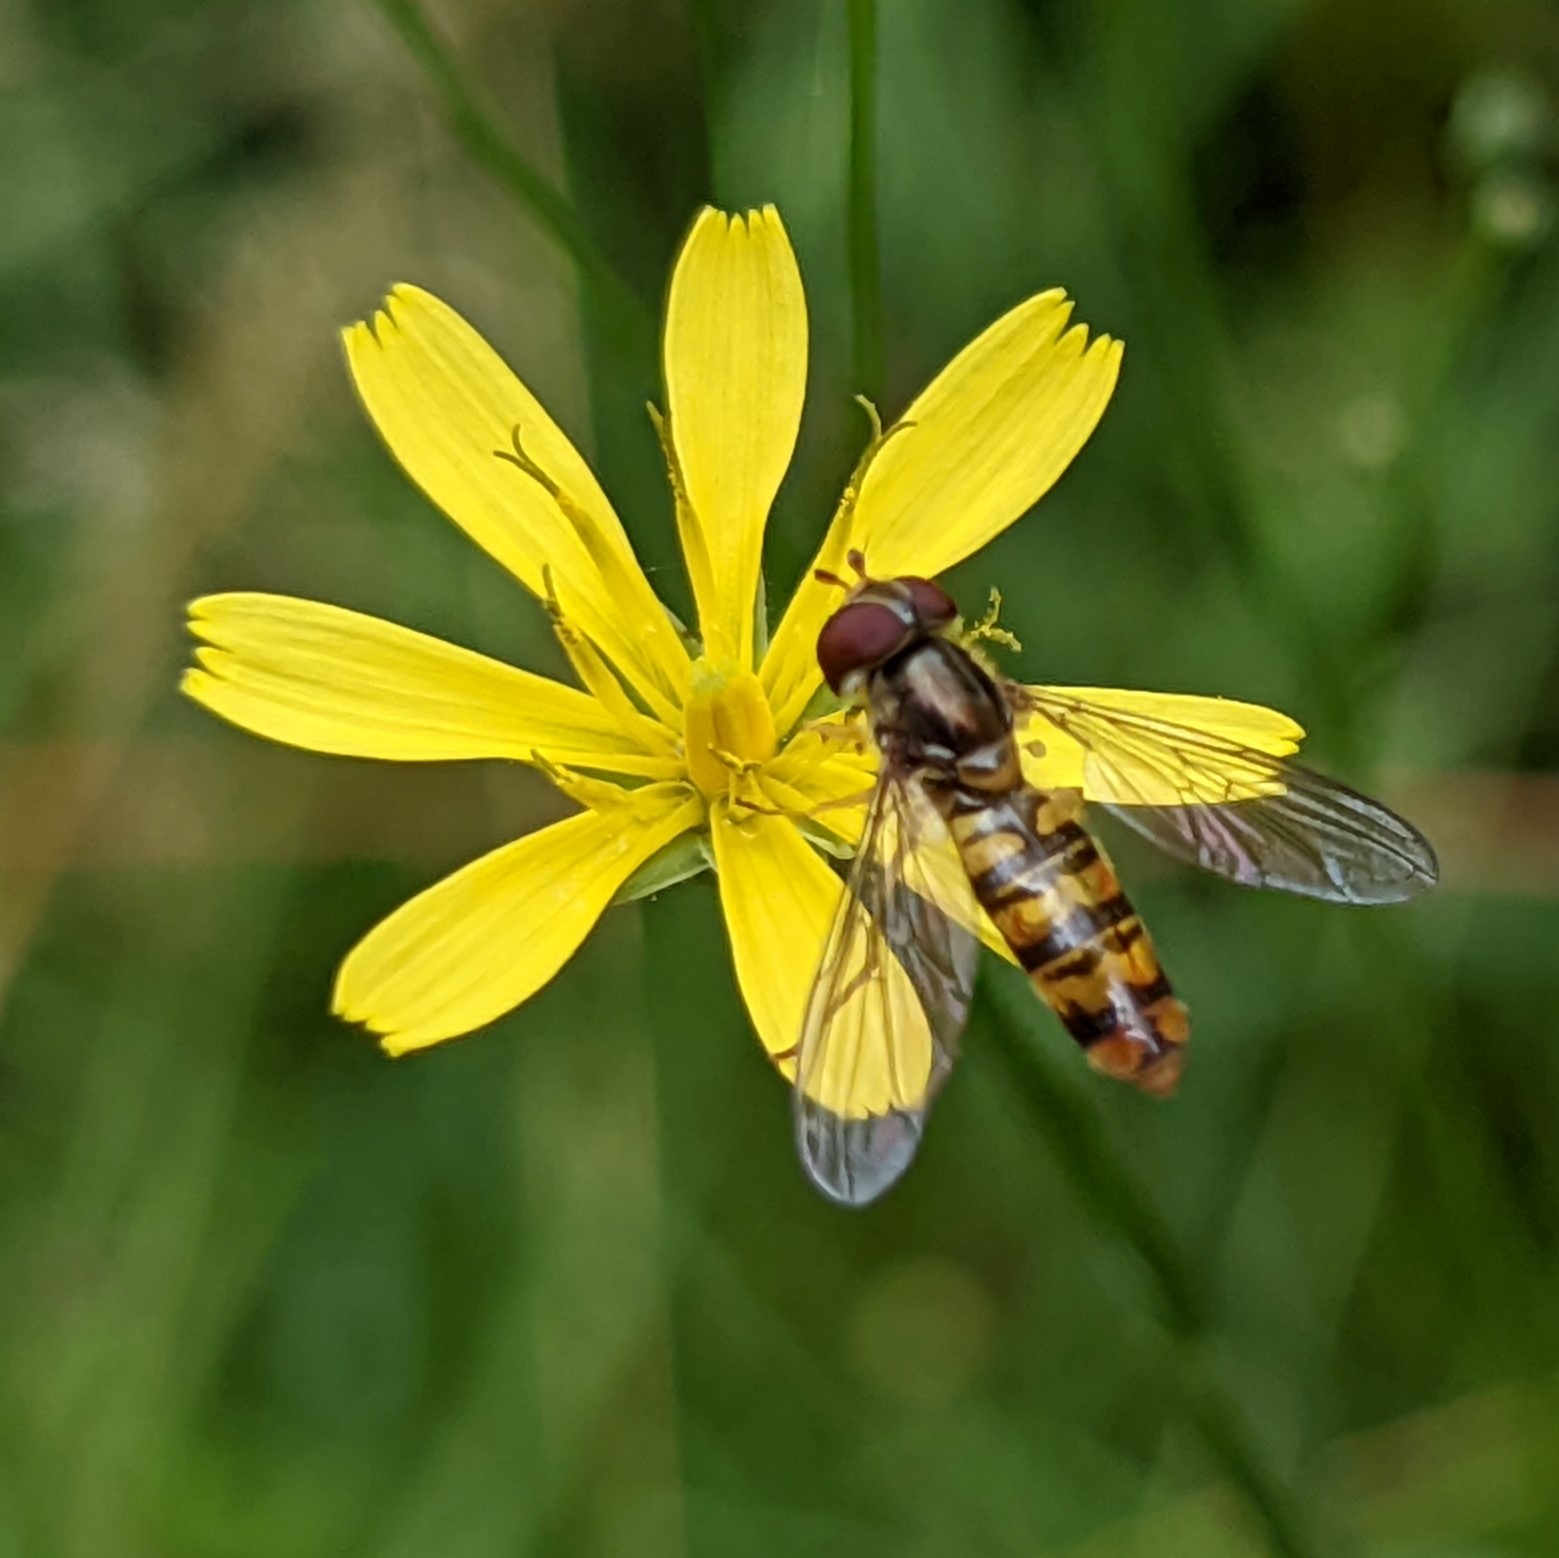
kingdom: Animalia
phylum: Arthropoda
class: Insecta
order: Diptera
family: Syrphidae
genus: Episyrphus
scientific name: Episyrphus balteatus
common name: Dobbeltbåndet svirreflue
